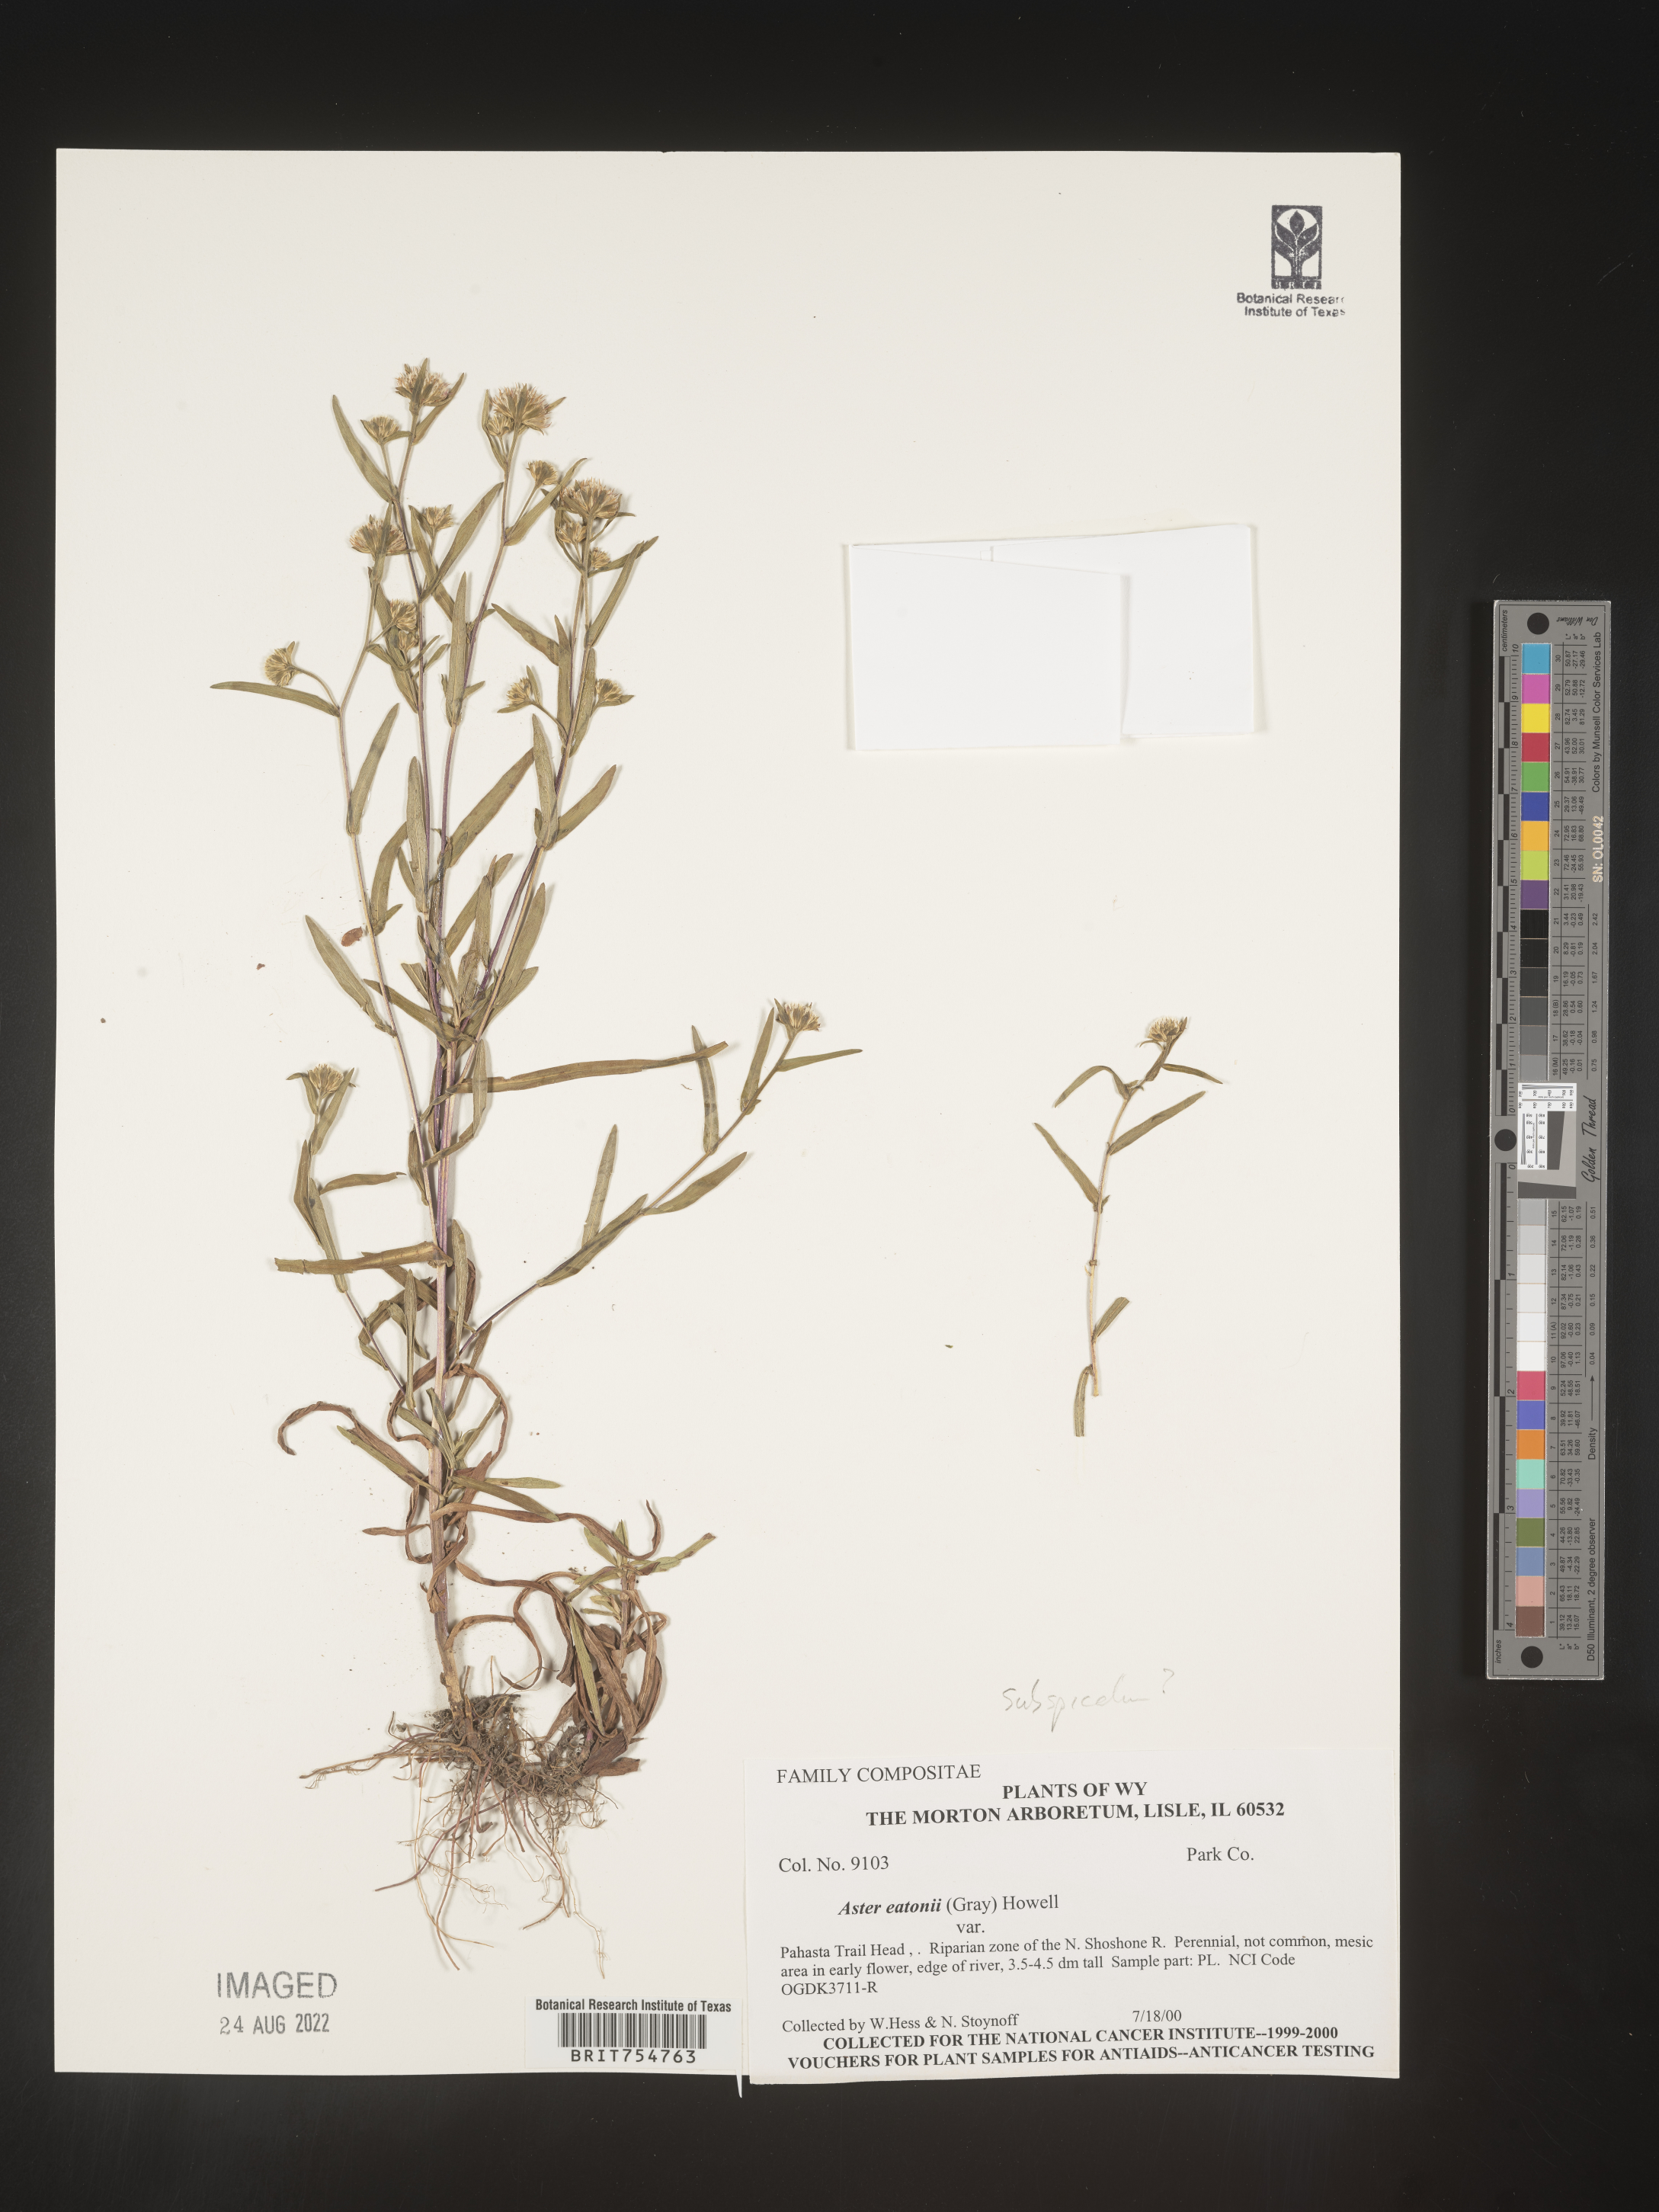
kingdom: Plantae
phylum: Tracheophyta
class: Magnoliopsida
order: Asterales
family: Asteraceae
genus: Symphyotrichum
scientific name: Symphyotrichum
